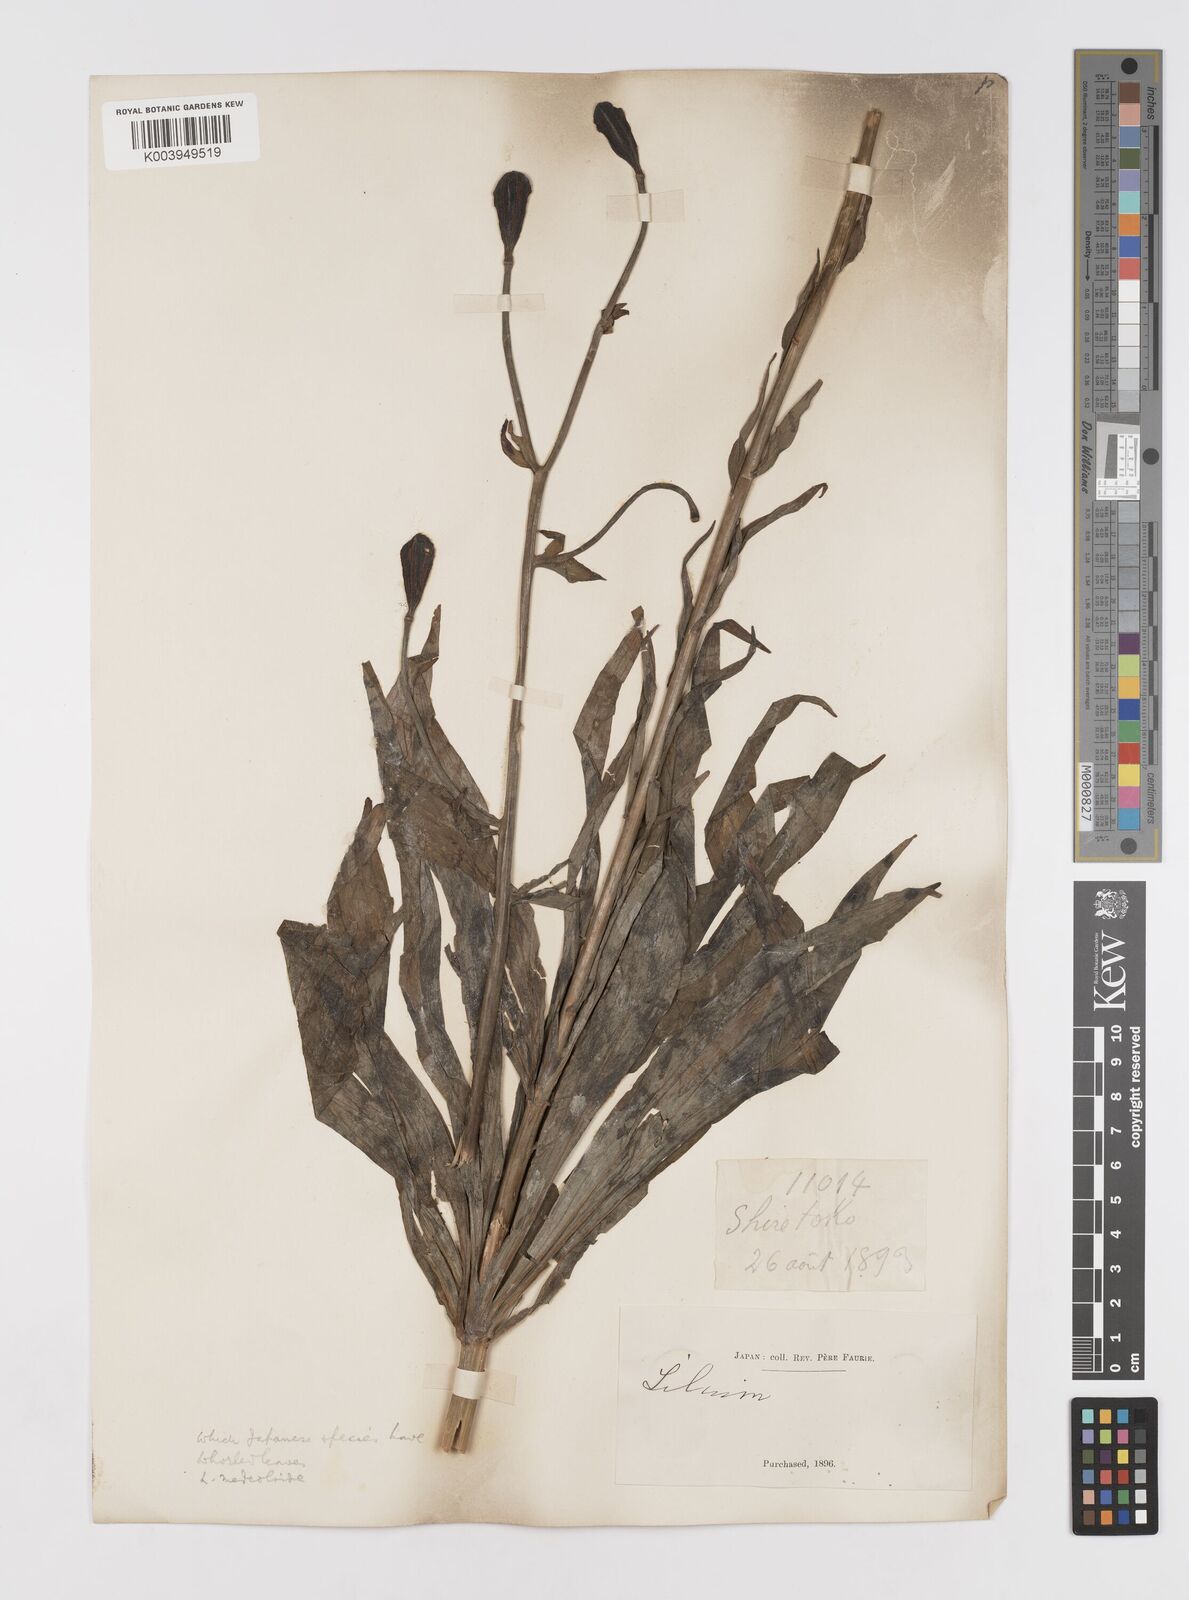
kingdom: Plantae
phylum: Tracheophyta
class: Liliopsida
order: Liliales
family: Liliaceae
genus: Lilium
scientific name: Lilium medeoloides
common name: Wheel lily
